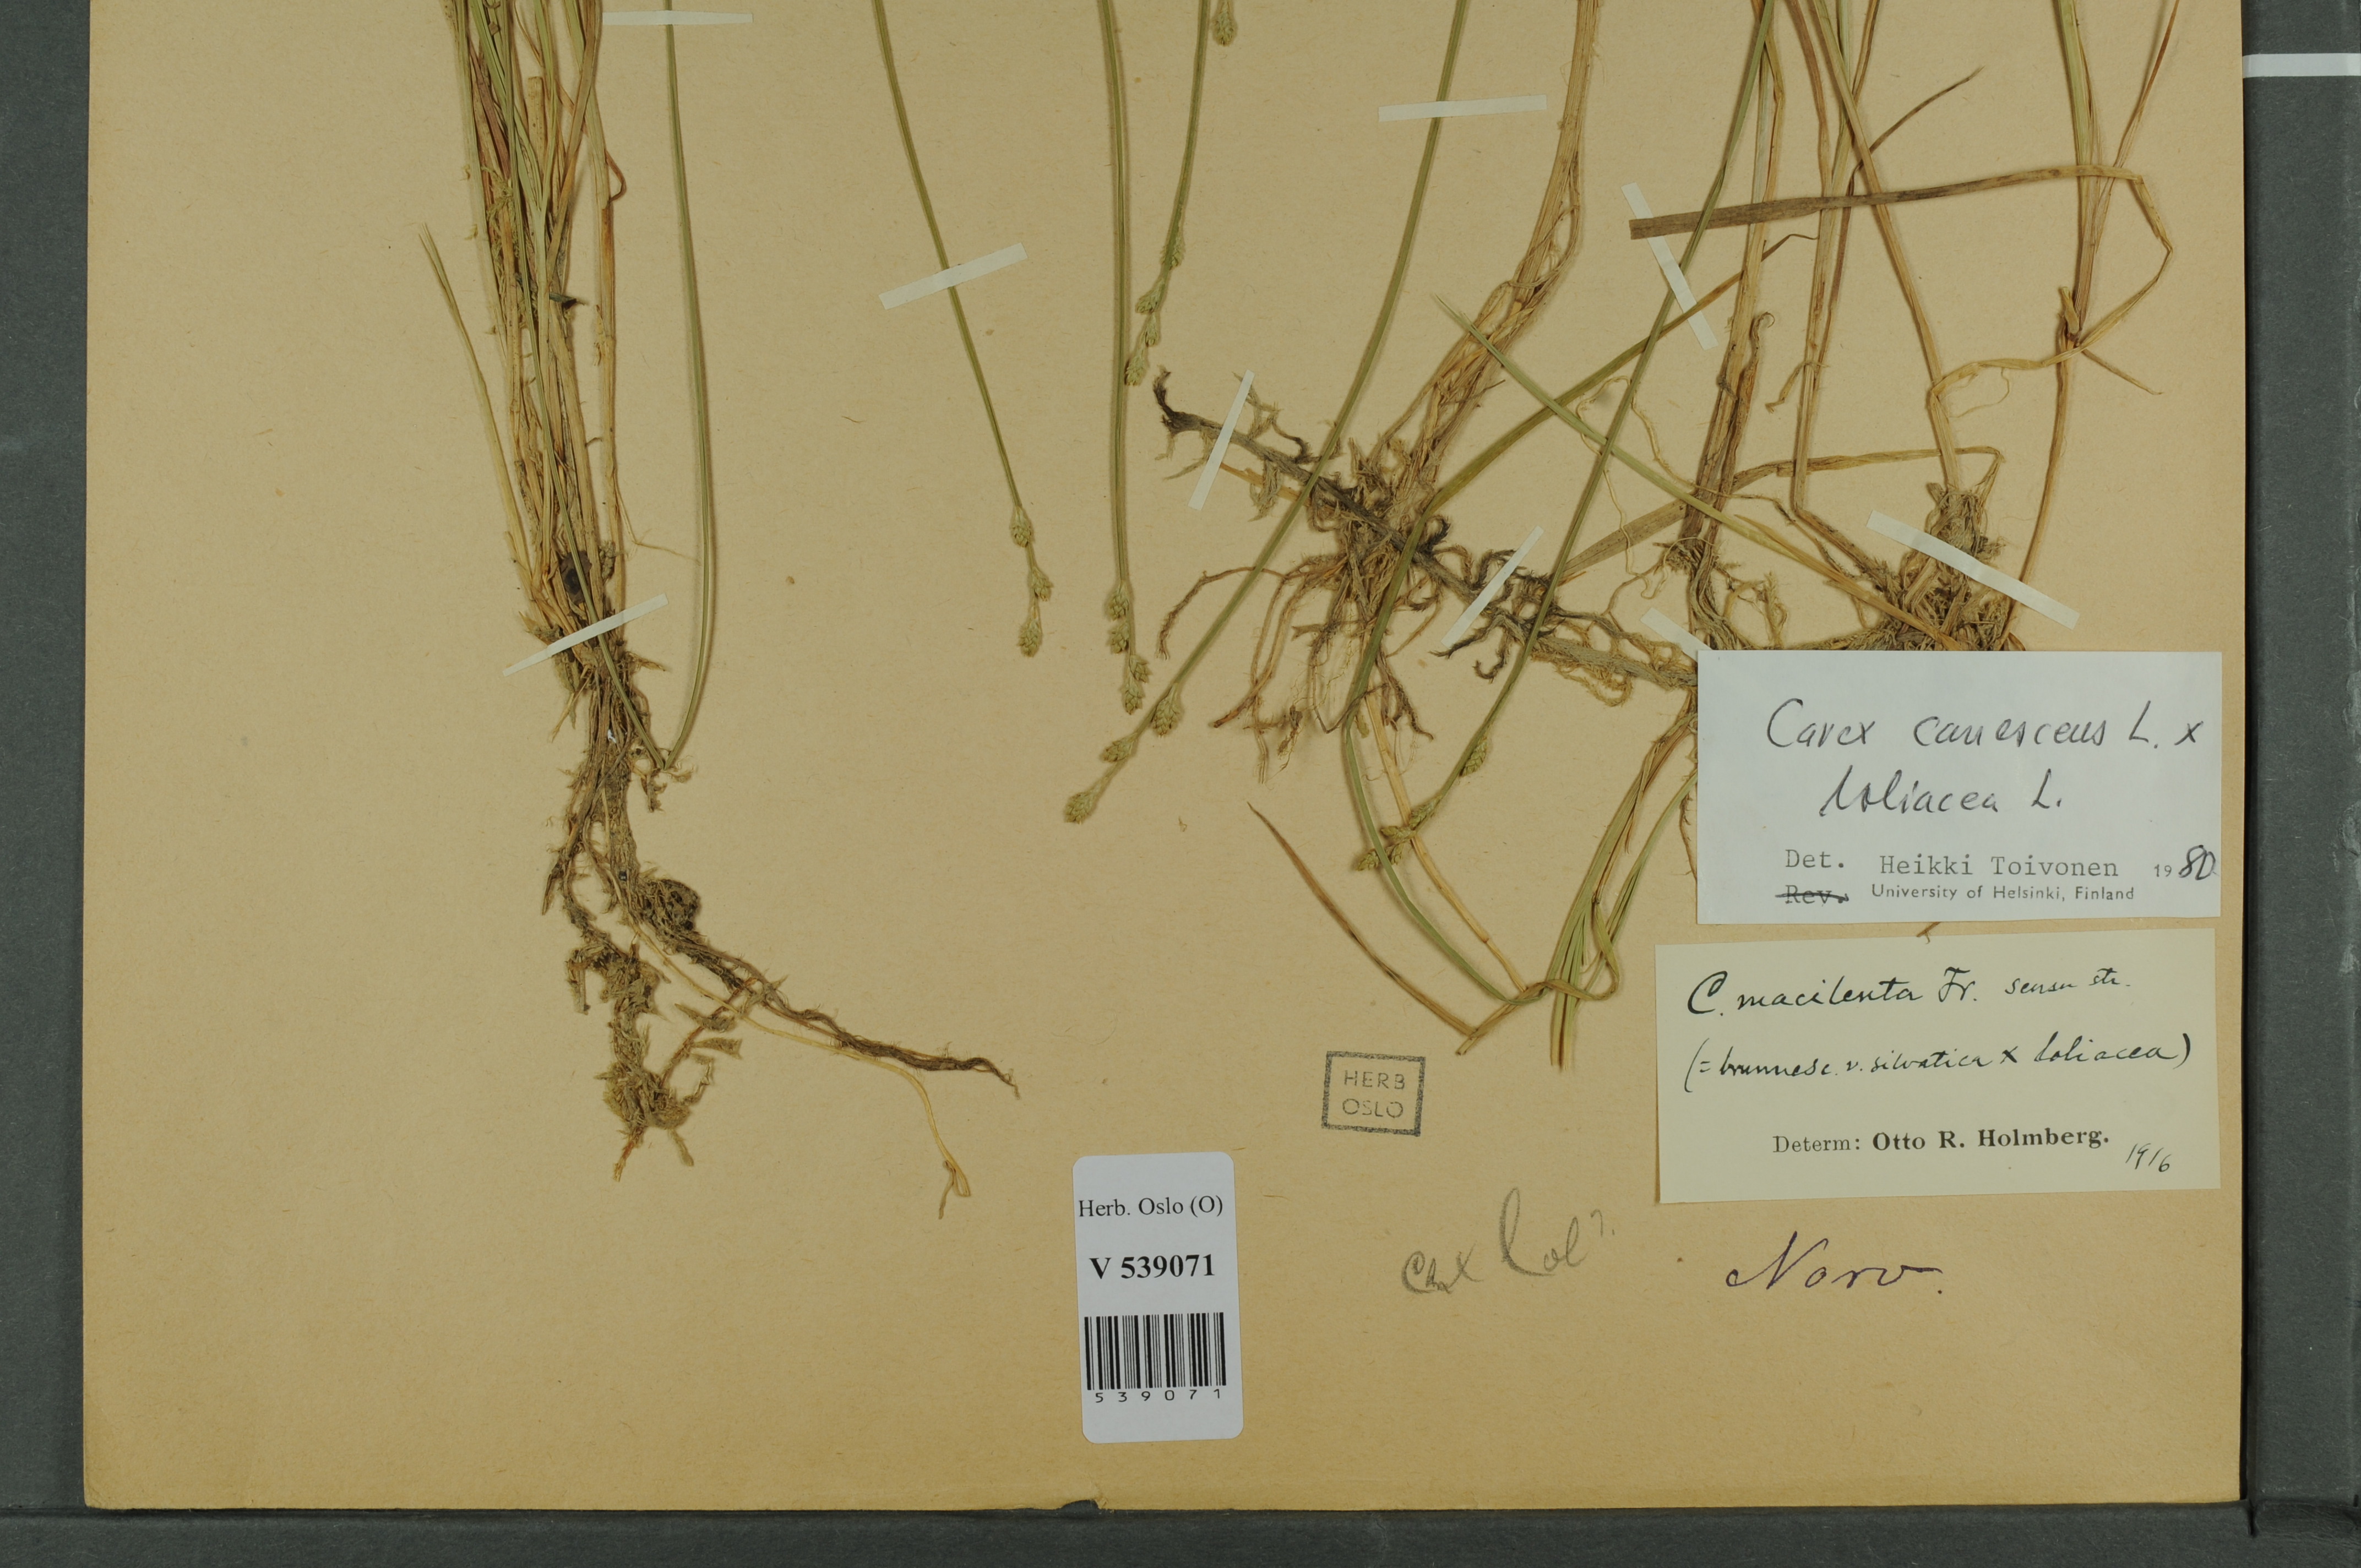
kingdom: Plantae
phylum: Tracheophyta
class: Liliopsida
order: Poales
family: Cyperaceae
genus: Carex
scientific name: Carex
